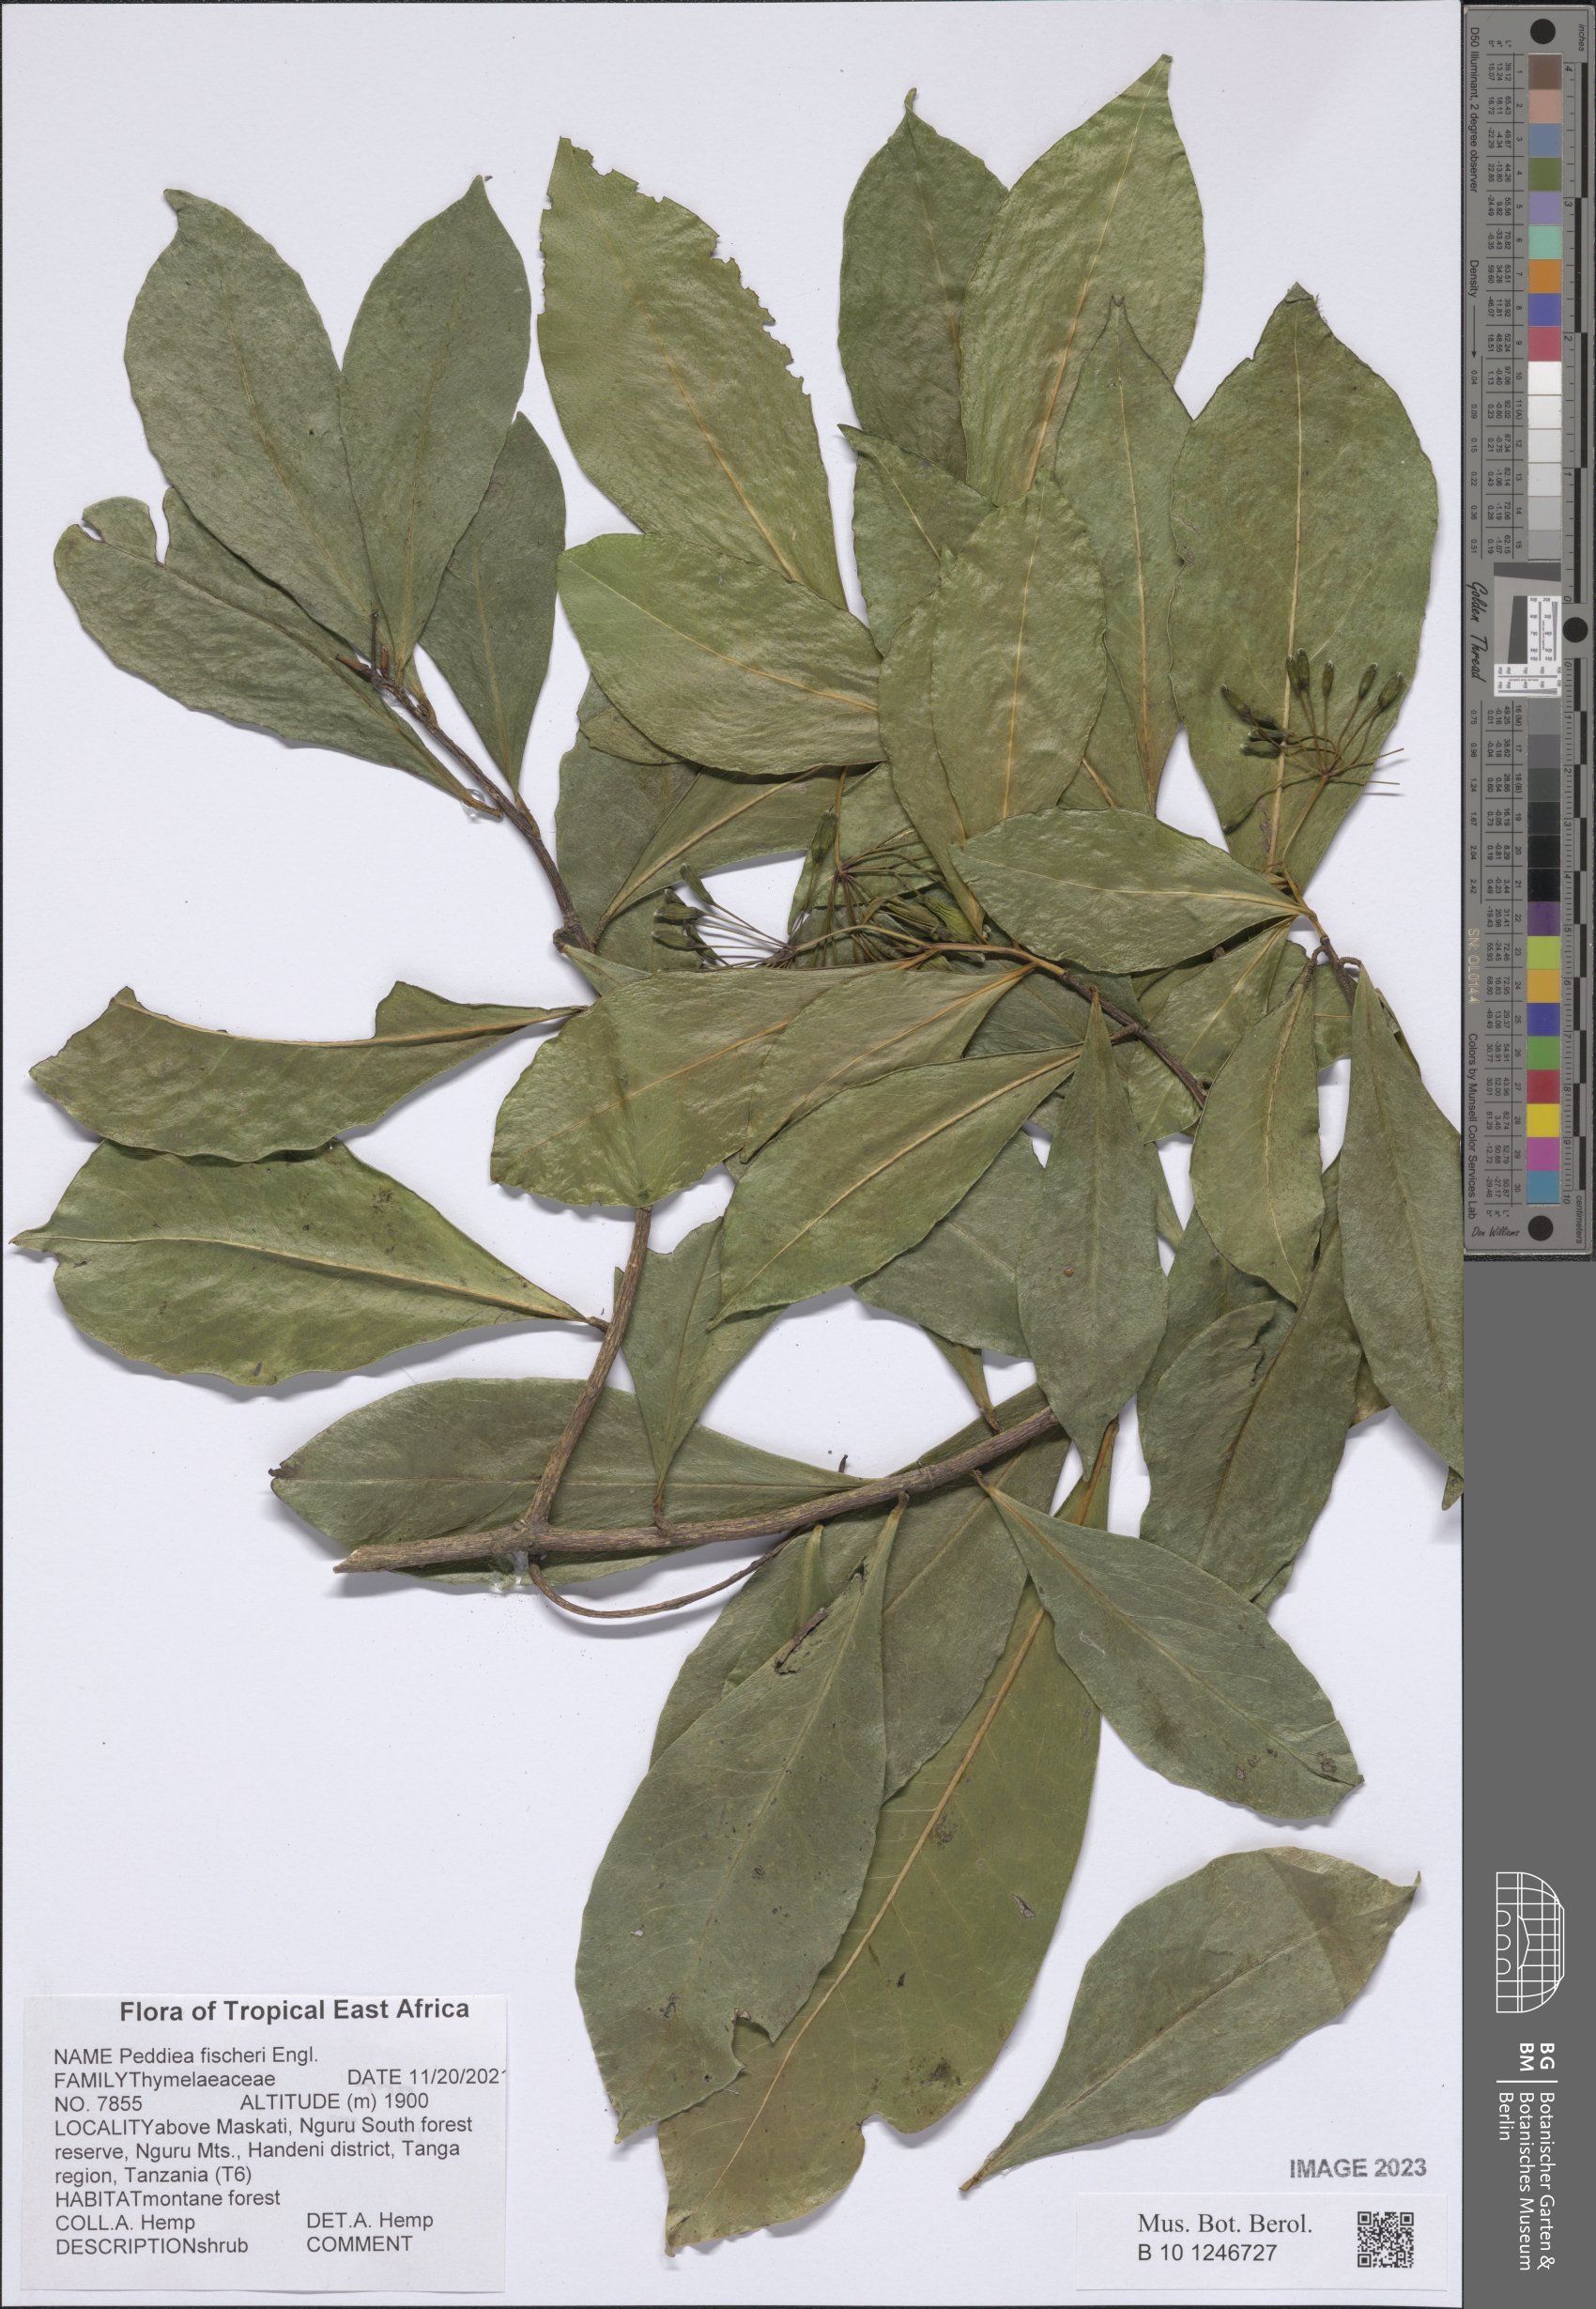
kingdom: Plantae
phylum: Tracheophyta
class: Magnoliopsida
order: Malvales
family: Thymelaeaceae
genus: Peddiea
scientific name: Peddiea fischeri
